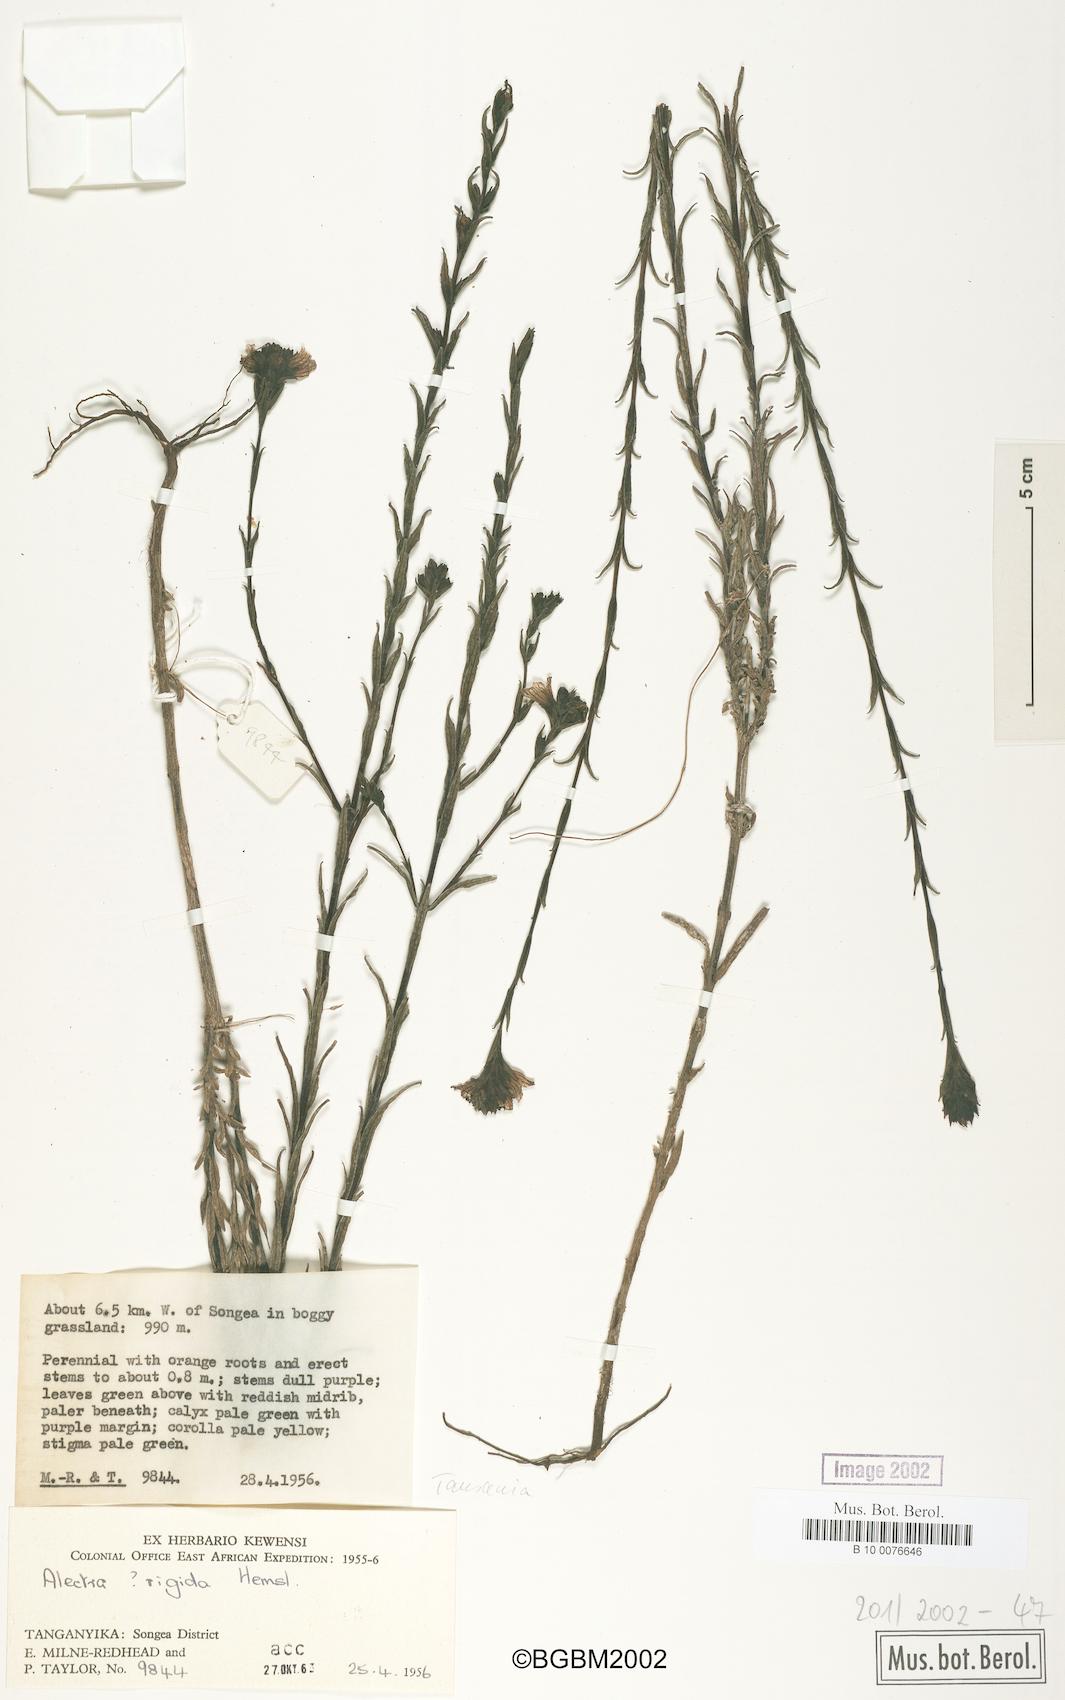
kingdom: Plantae
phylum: Tracheophyta
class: Magnoliopsida
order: Lamiales
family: Orobanchaceae
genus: Alectra
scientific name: Alectra rigida
